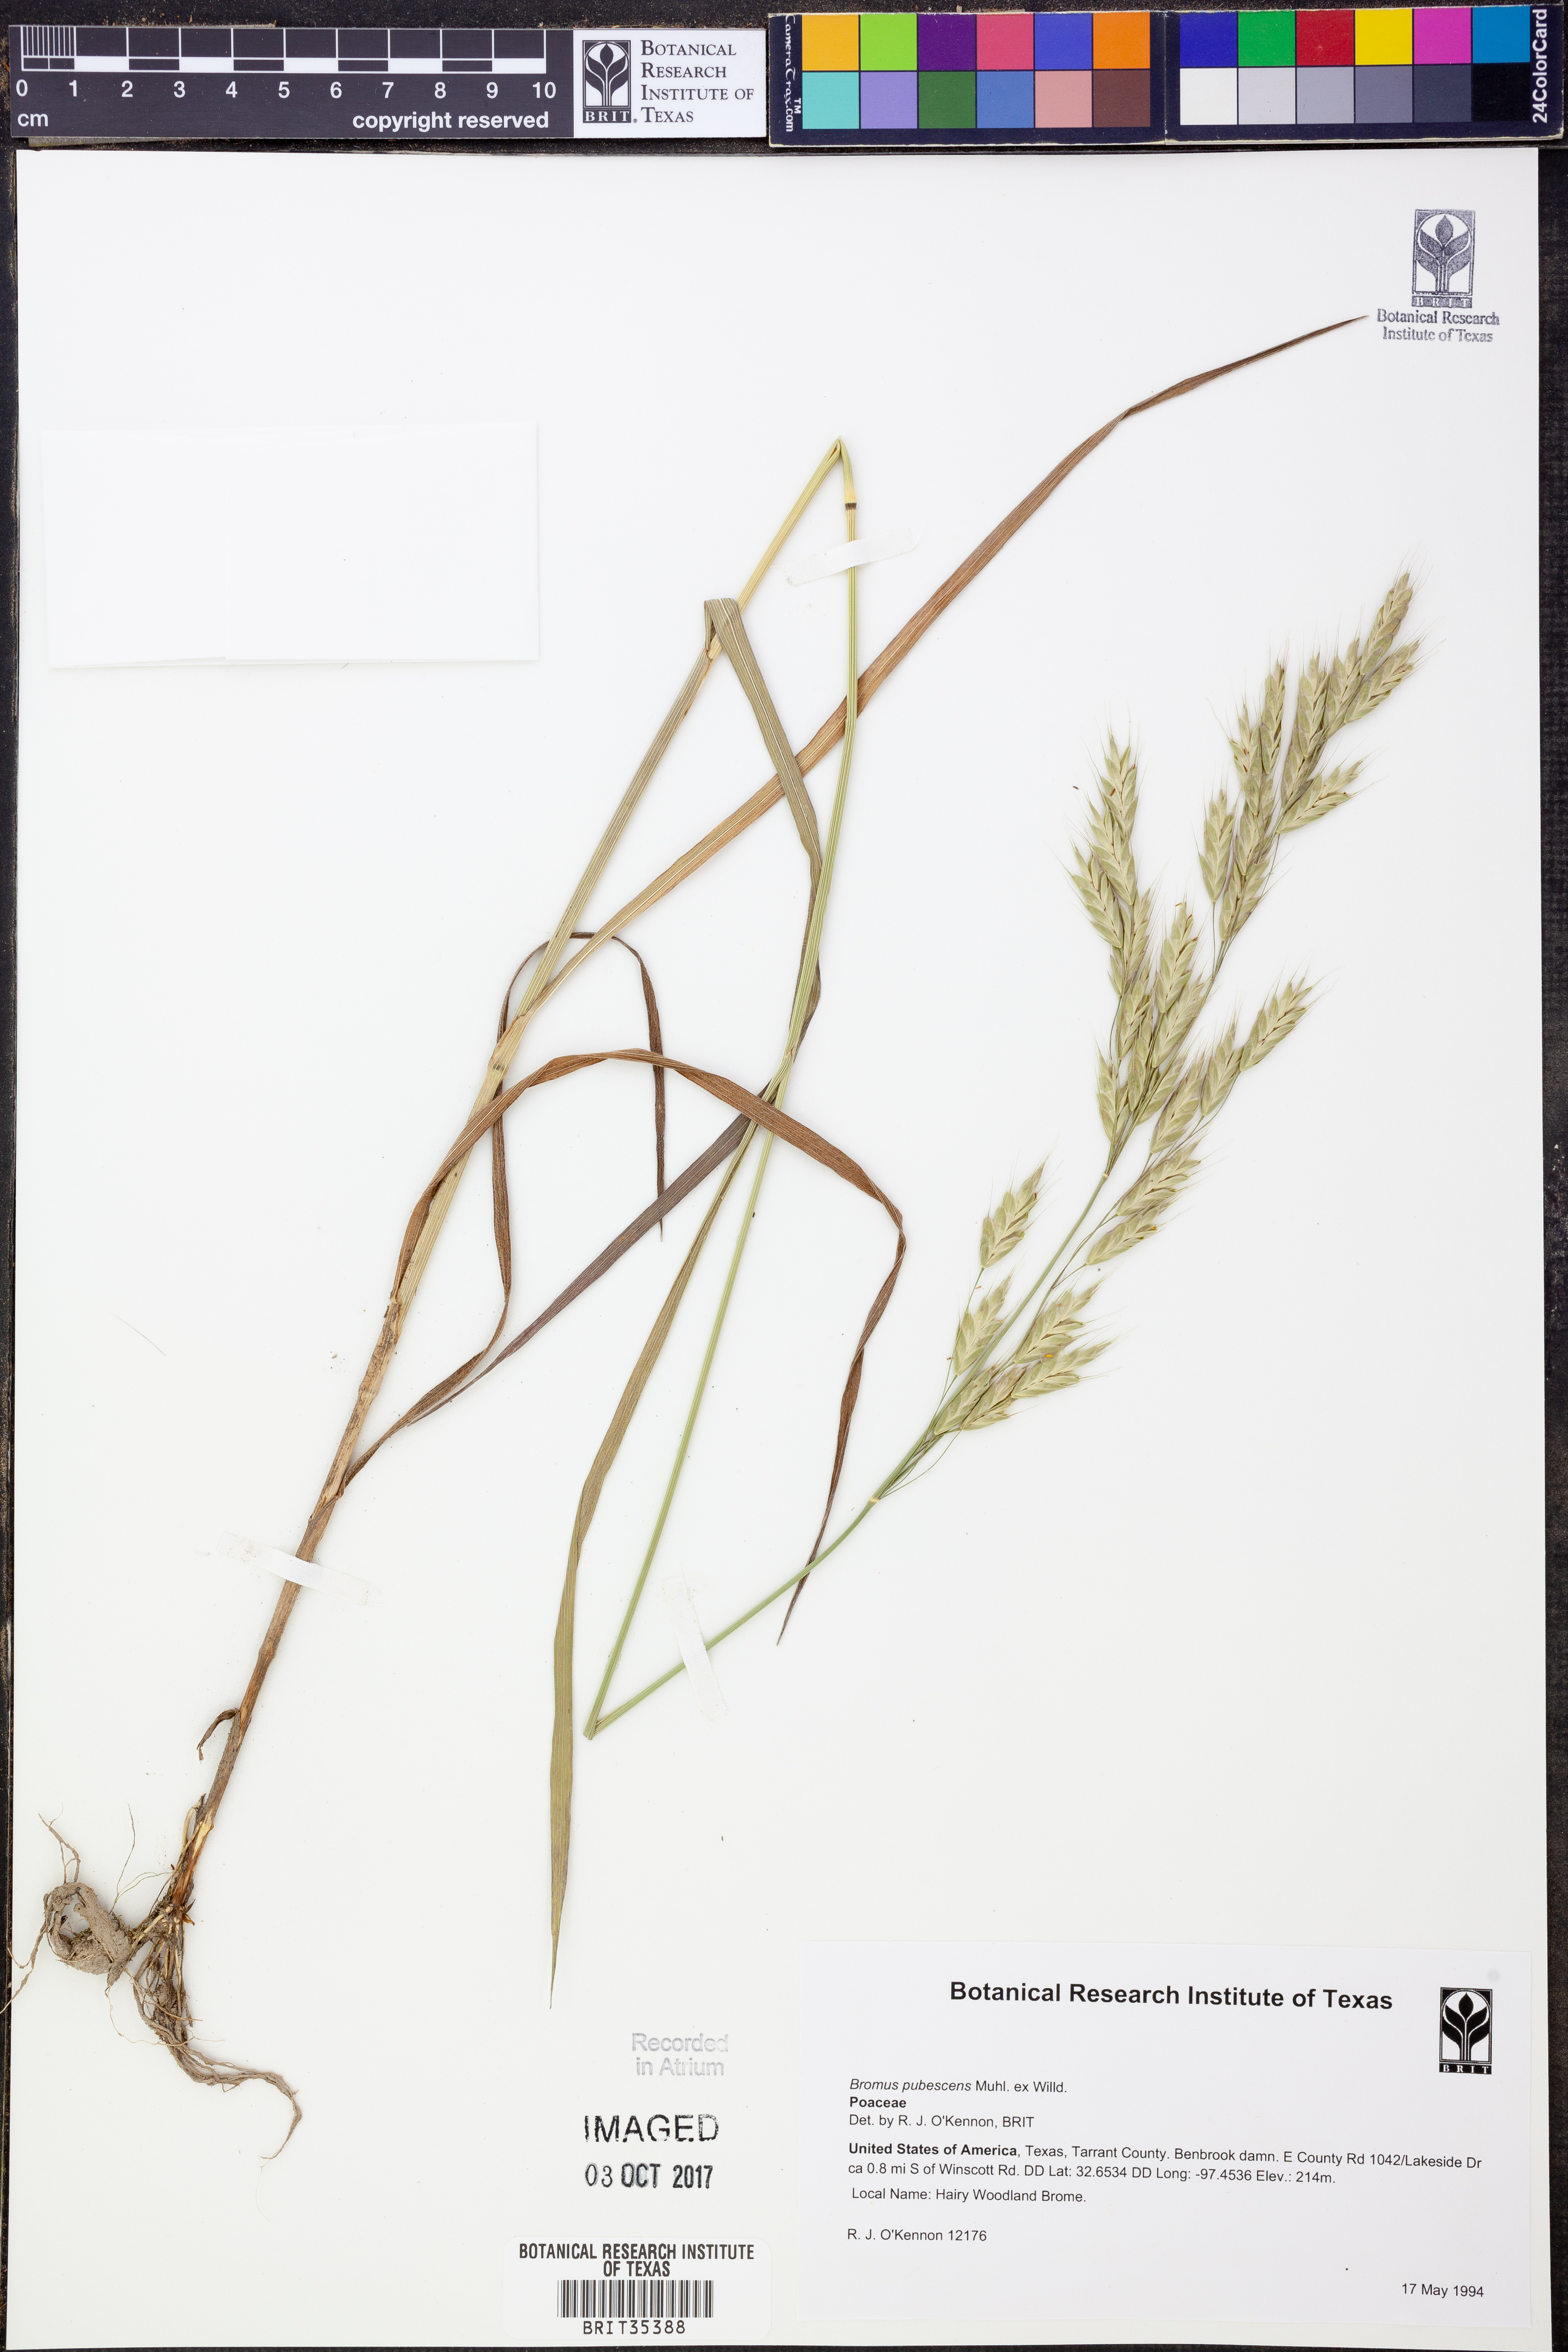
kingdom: Plantae
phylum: Tracheophyta
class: Liliopsida
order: Poales
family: Poaceae
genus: Bromus
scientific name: Bromus pubescens
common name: Hairy wood brome grass
